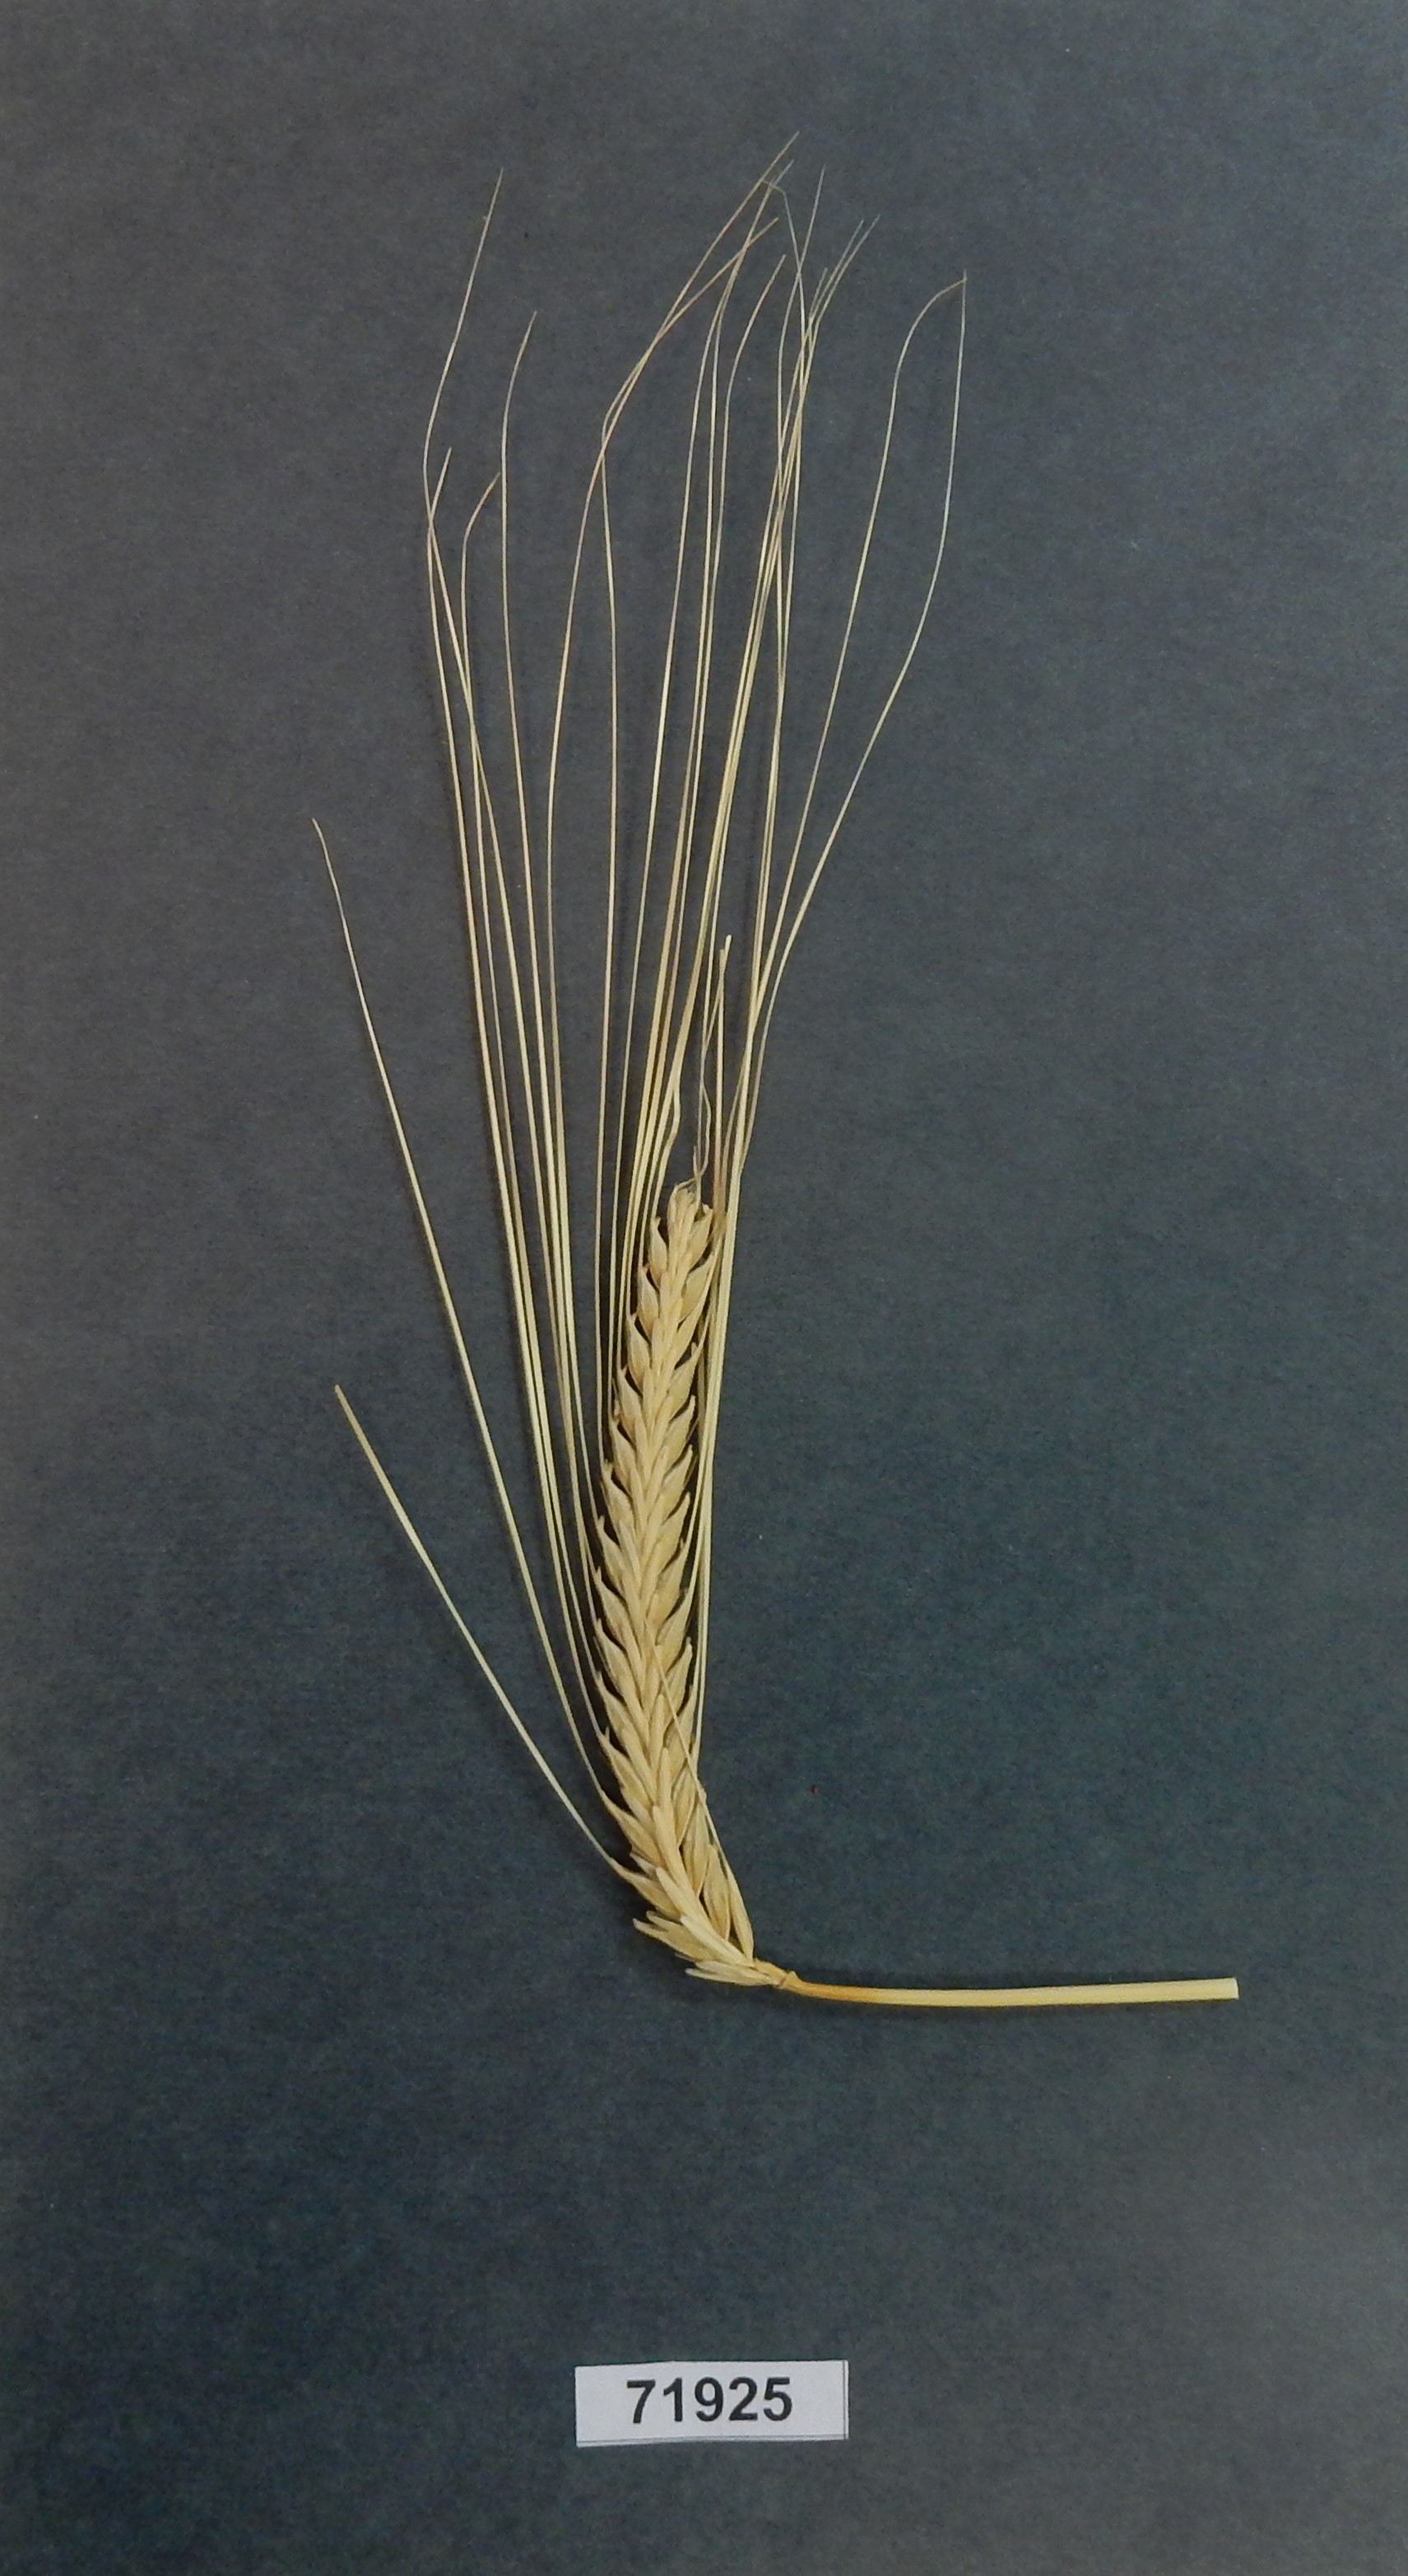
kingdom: Plantae
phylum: Tracheophyta
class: Liliopsida
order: Poales
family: Poaceae
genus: Hordeum
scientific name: Hordeum
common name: Barley
